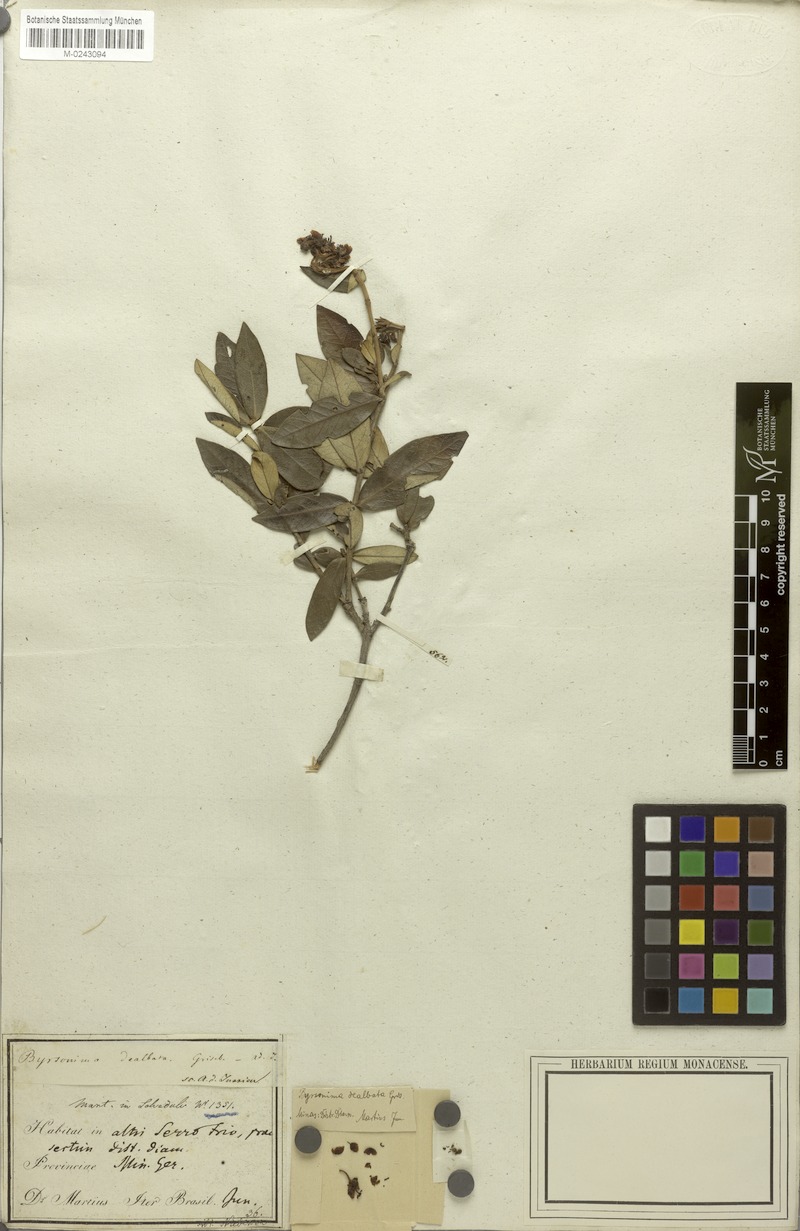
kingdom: Plantae
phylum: Tracheophyta
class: Magnoliopsida
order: Malpighiales
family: Malpighiaceae
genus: Byrsonima
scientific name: Byrsonima dealbata
